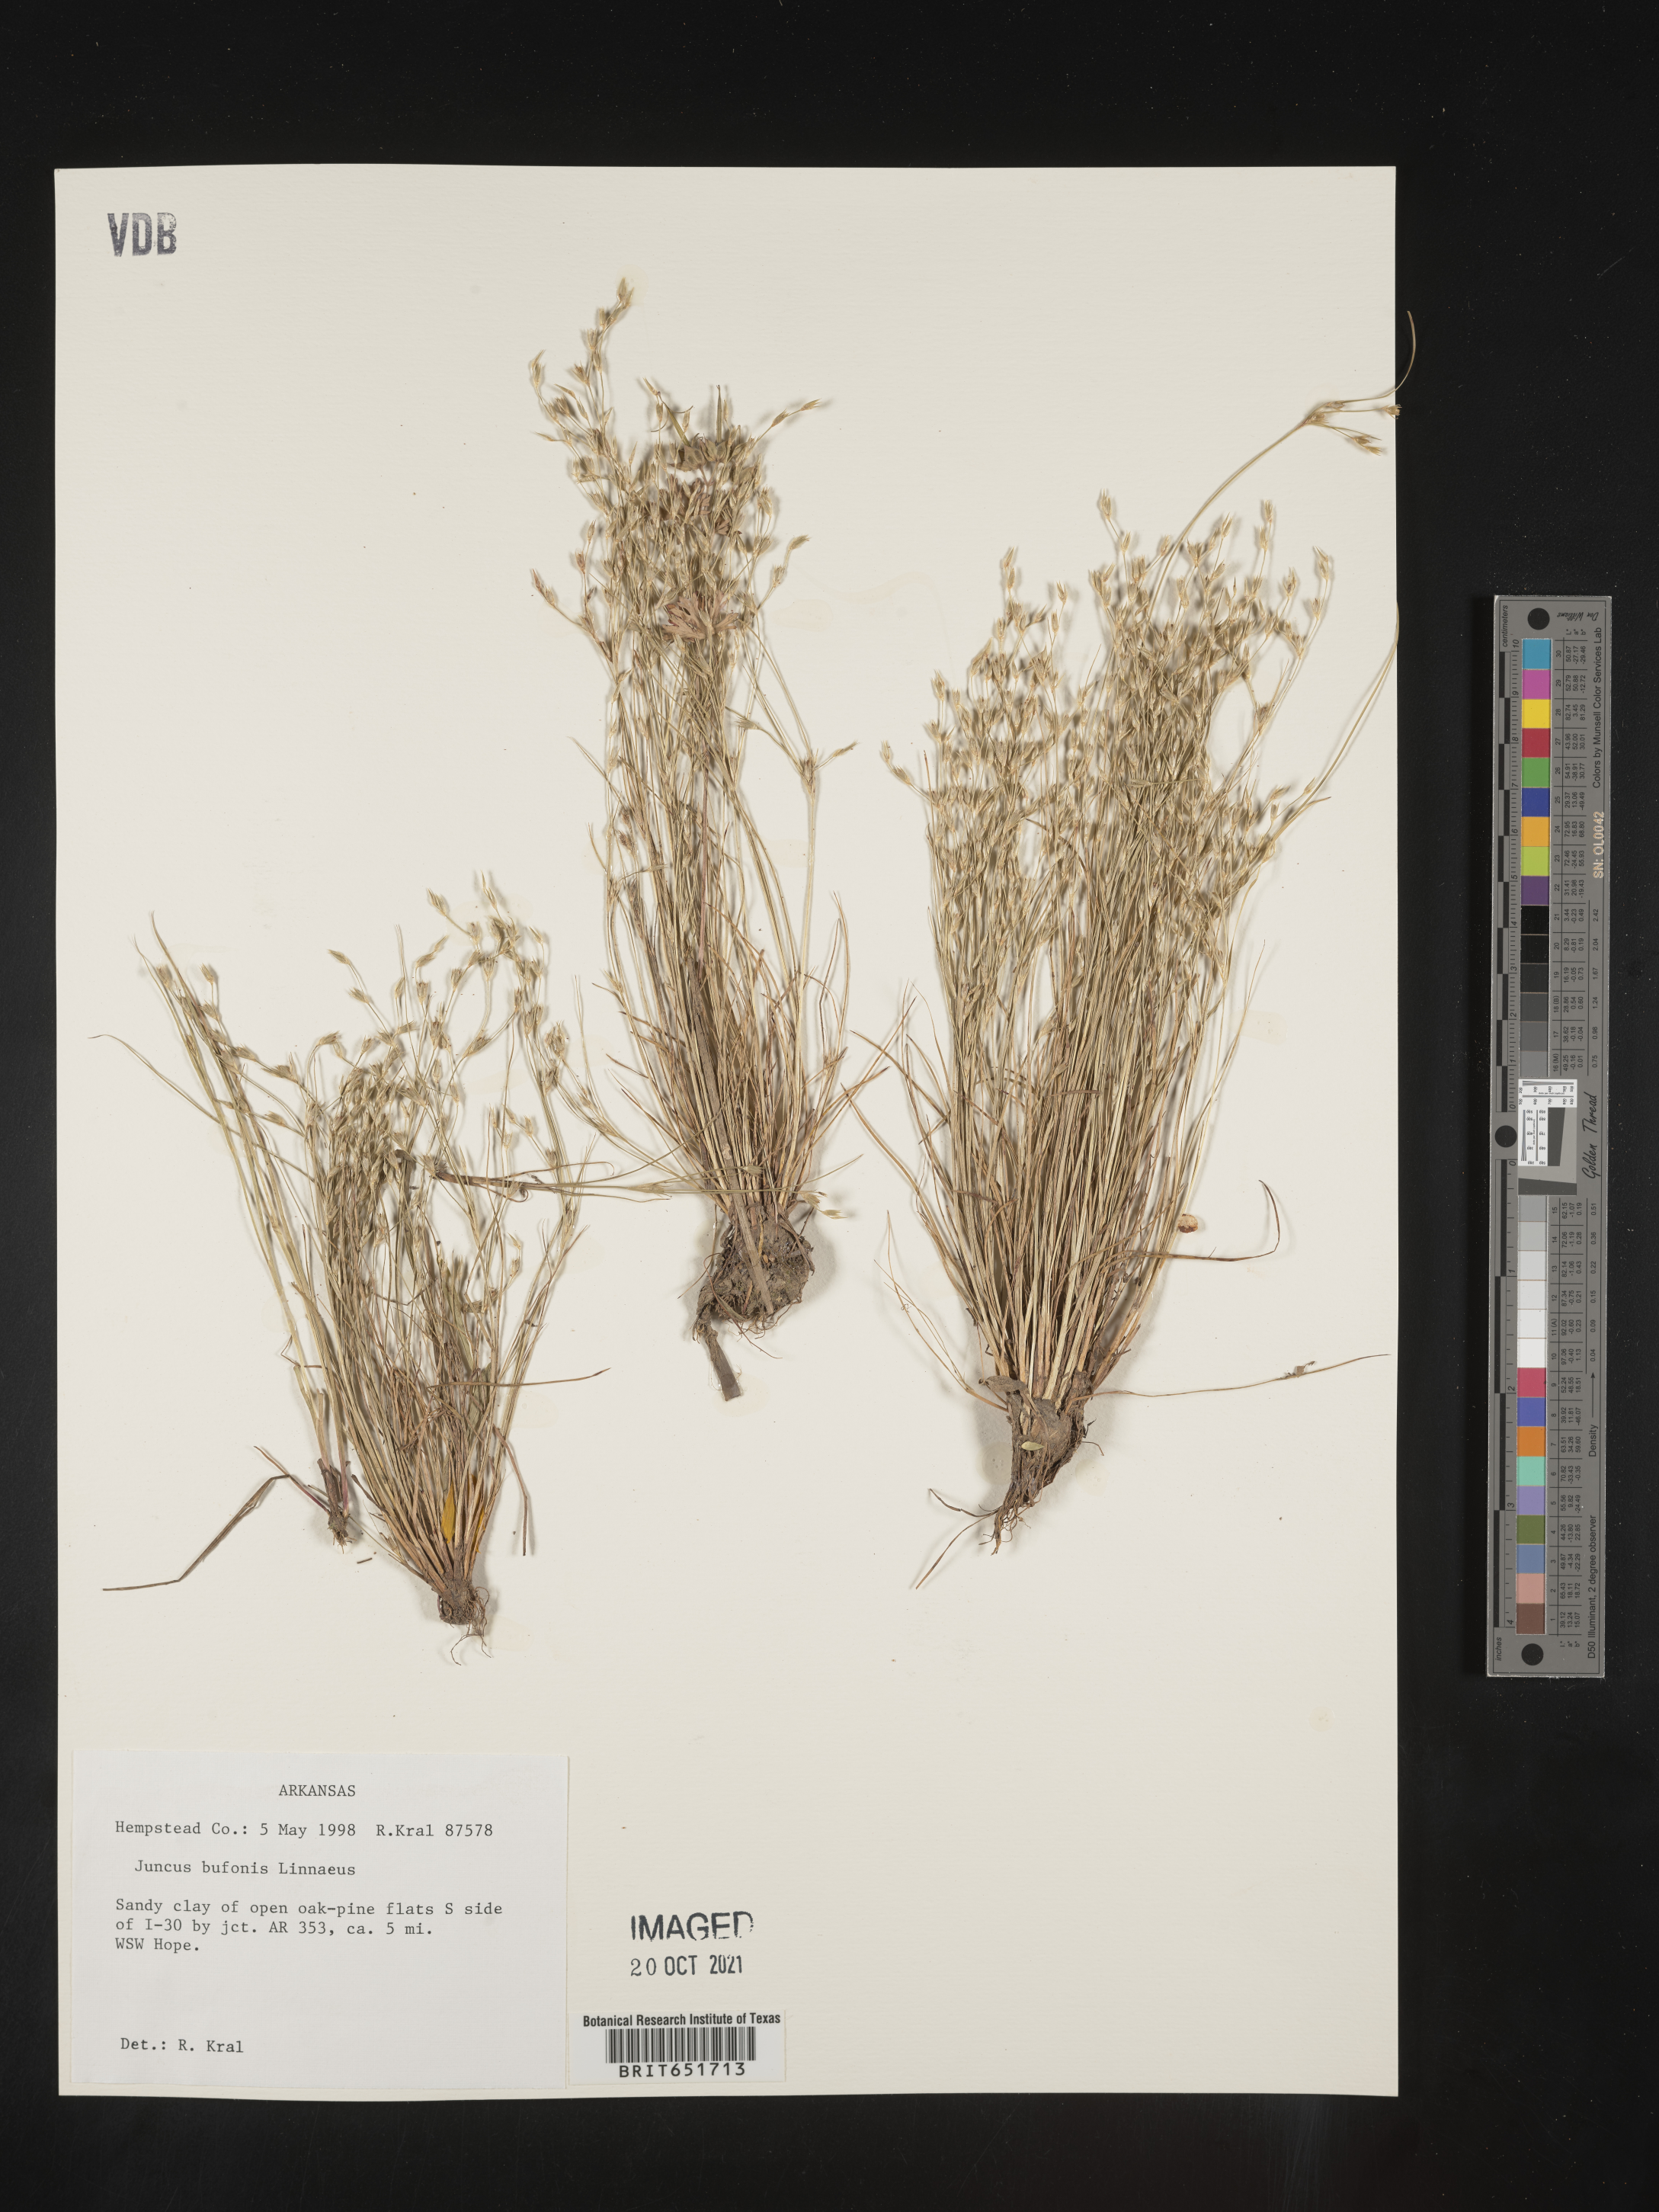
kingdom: Plantae
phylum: Tracheophyta
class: Liliopsida
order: Poales
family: Juncaceae
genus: Juncus
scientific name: Juncus bufonius
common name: Toad rush
